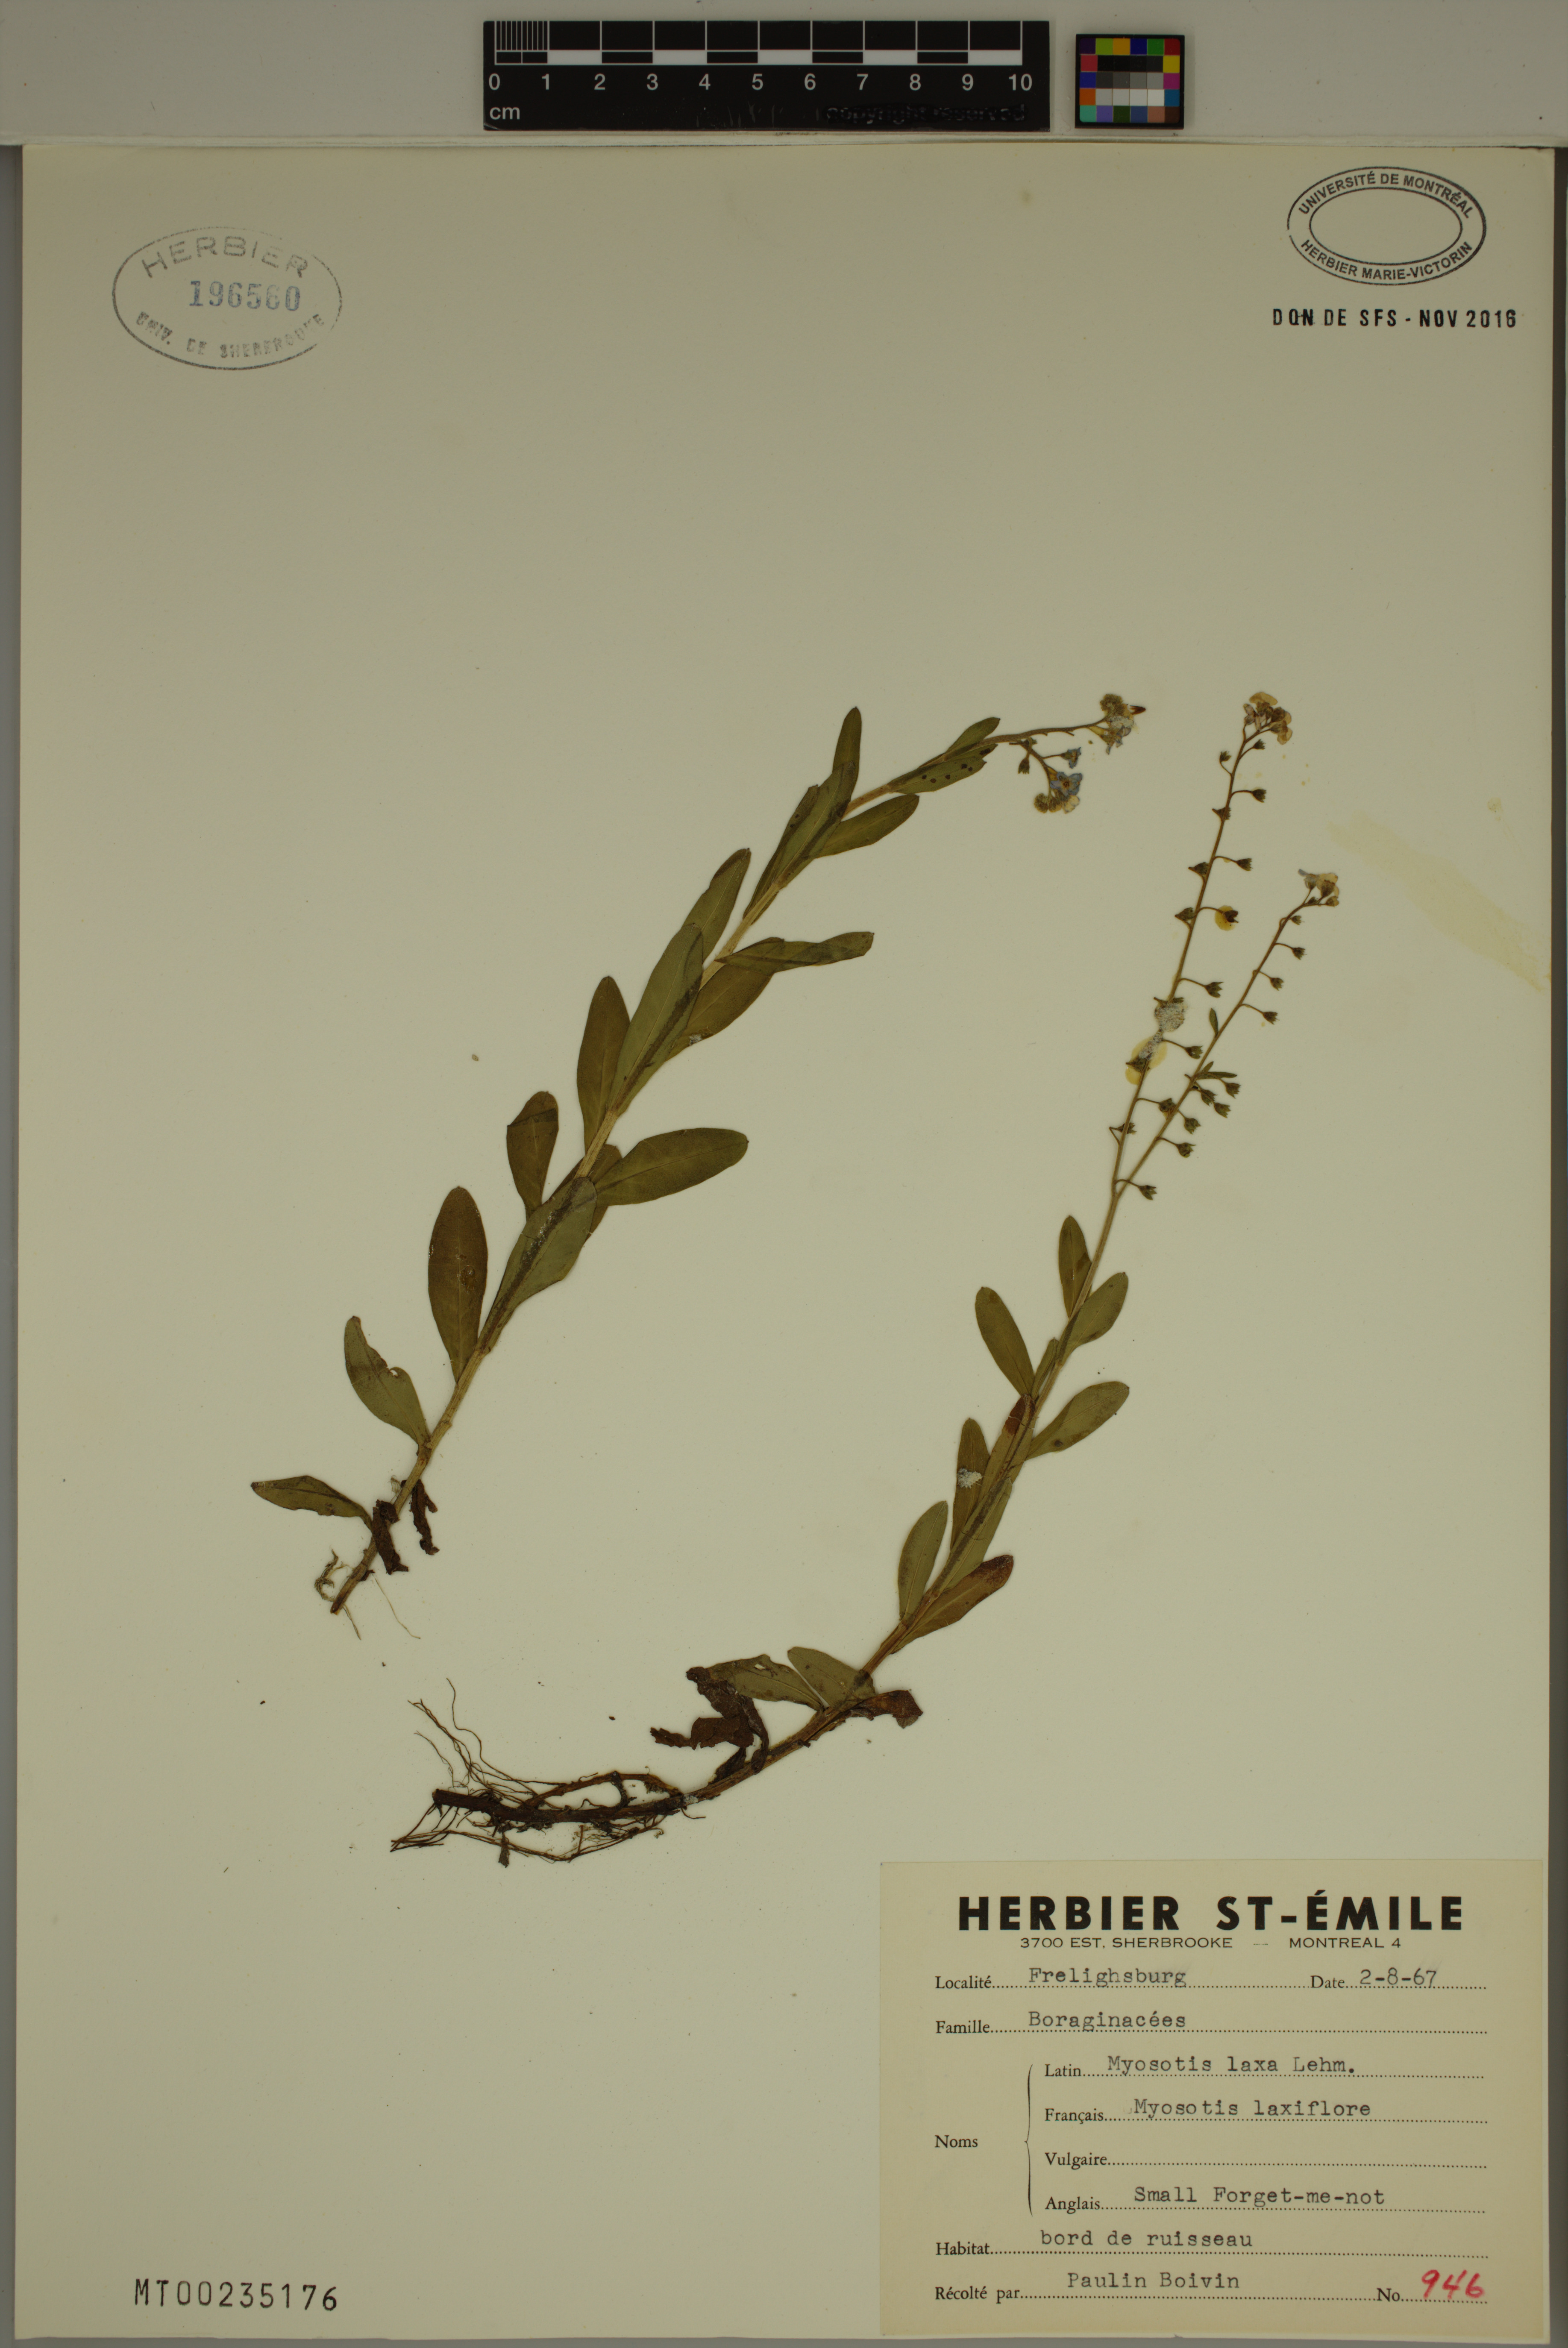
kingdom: Plantae
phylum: Tracheophyta
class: Magnoliopsida
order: Boraginales
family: Boraginaceae
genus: Myosotis
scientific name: Myosotis laxa
